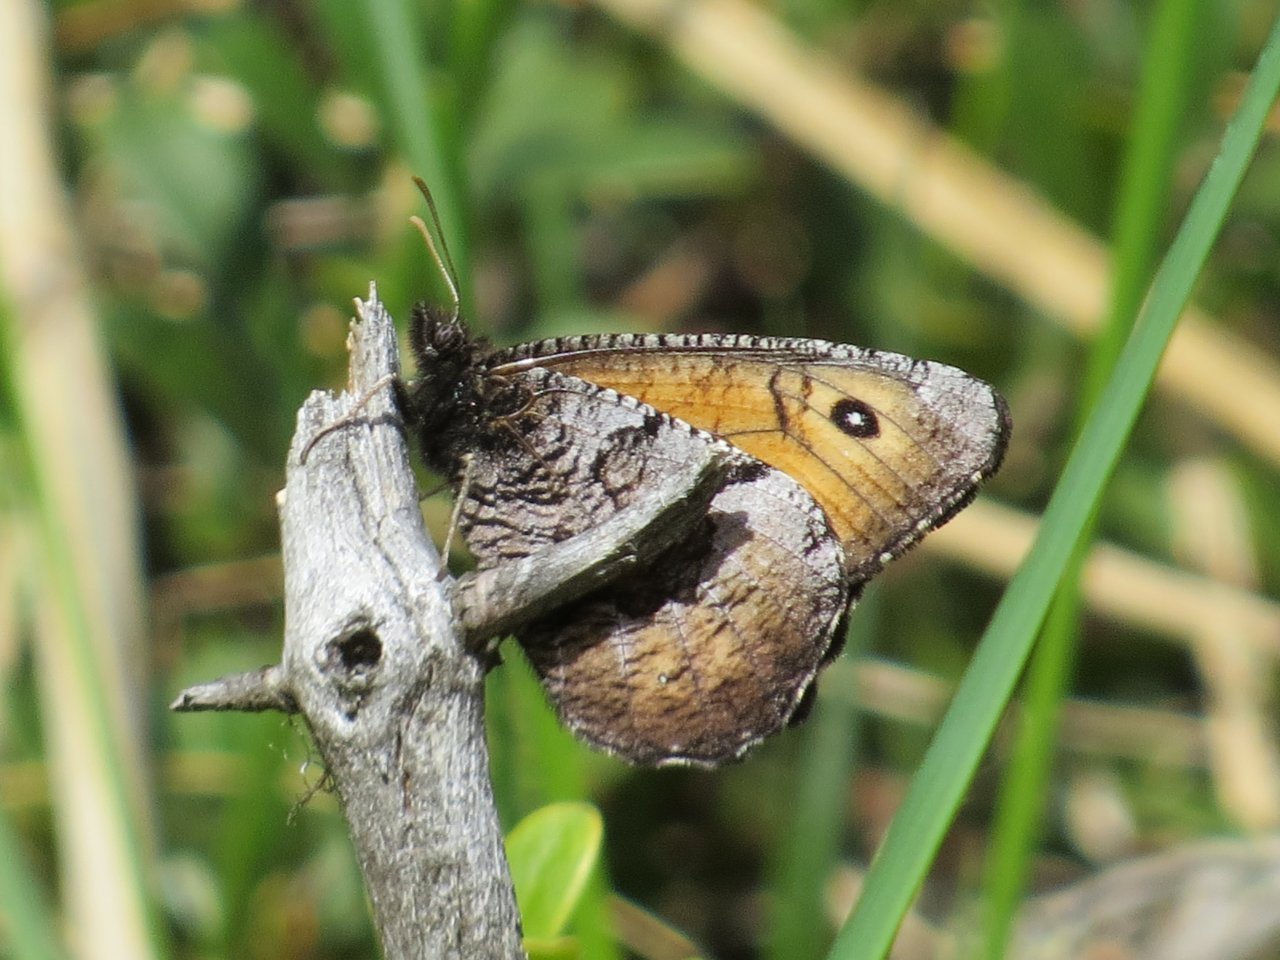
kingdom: Animalia
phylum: Arthropoda
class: Insecta
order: Lepidoptera
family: Nymphalidae
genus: Oeneis
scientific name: Oeneis macounii
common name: Macoun's Arctic
